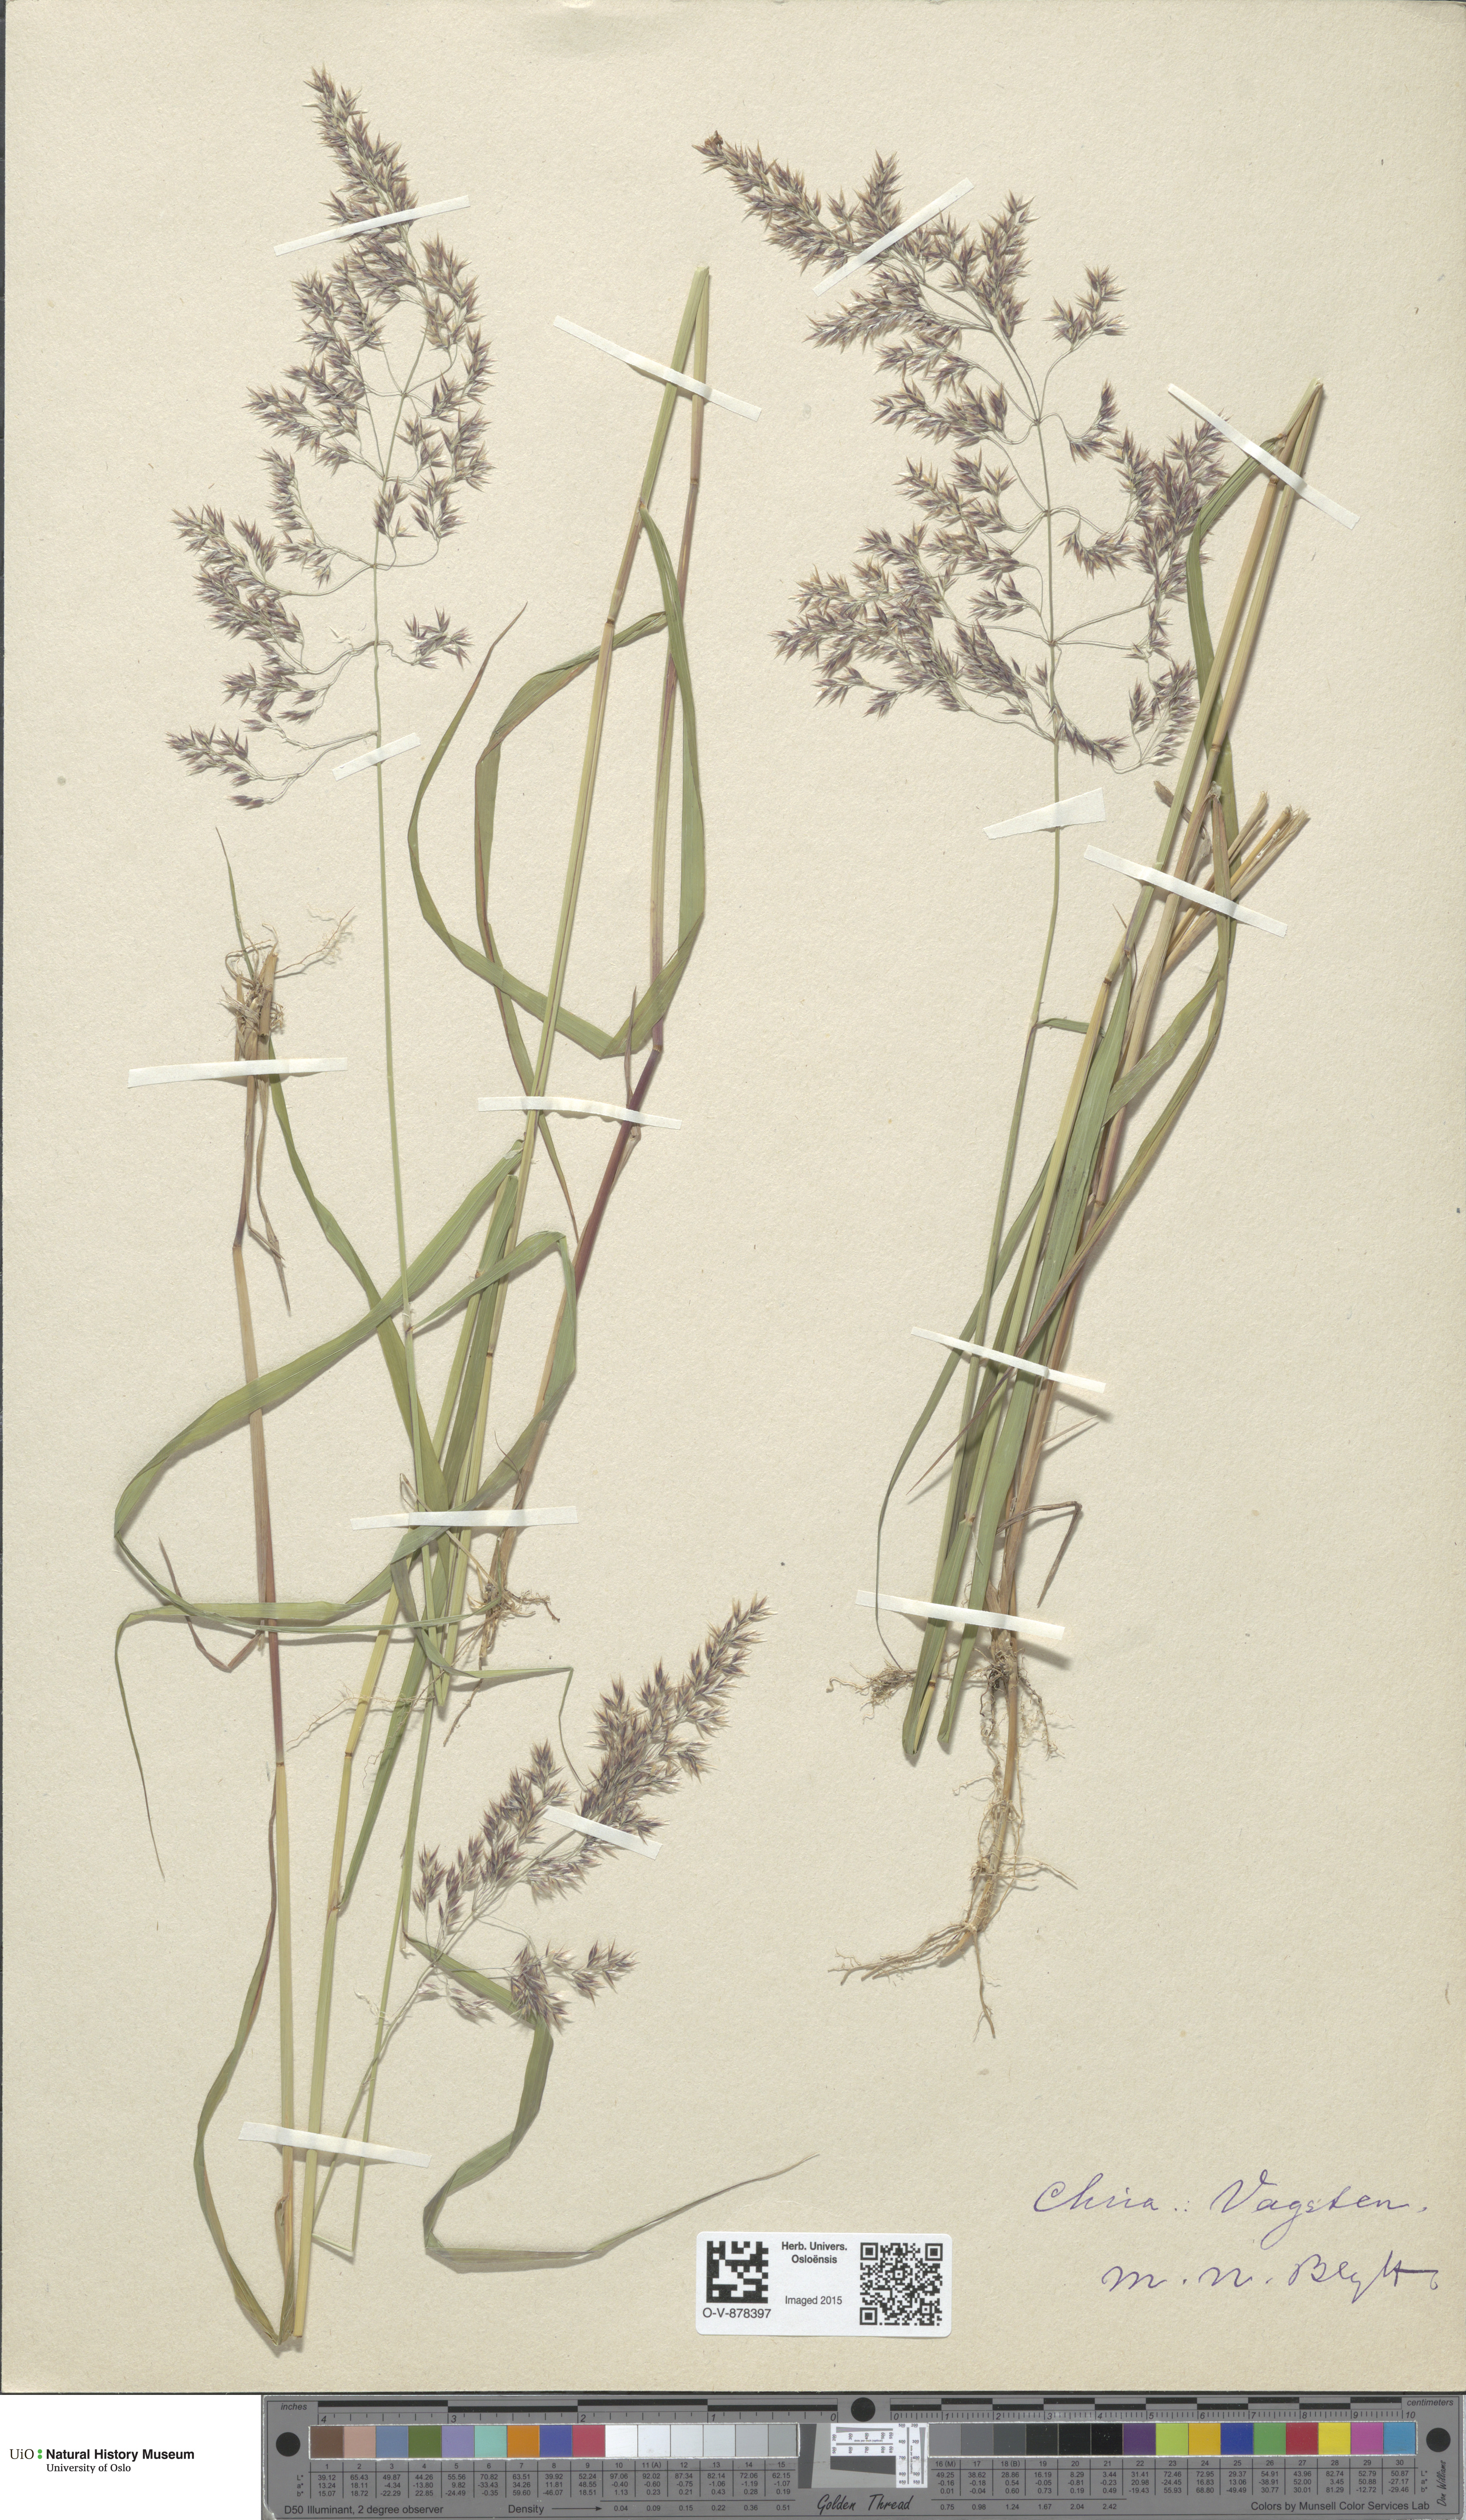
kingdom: Plantae
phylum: Tracheophyta
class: Liliopsida
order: Poales
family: Poaceae
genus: Calamagrostis
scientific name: Calamagrostis purpurea
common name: Scandinavian small-reed
